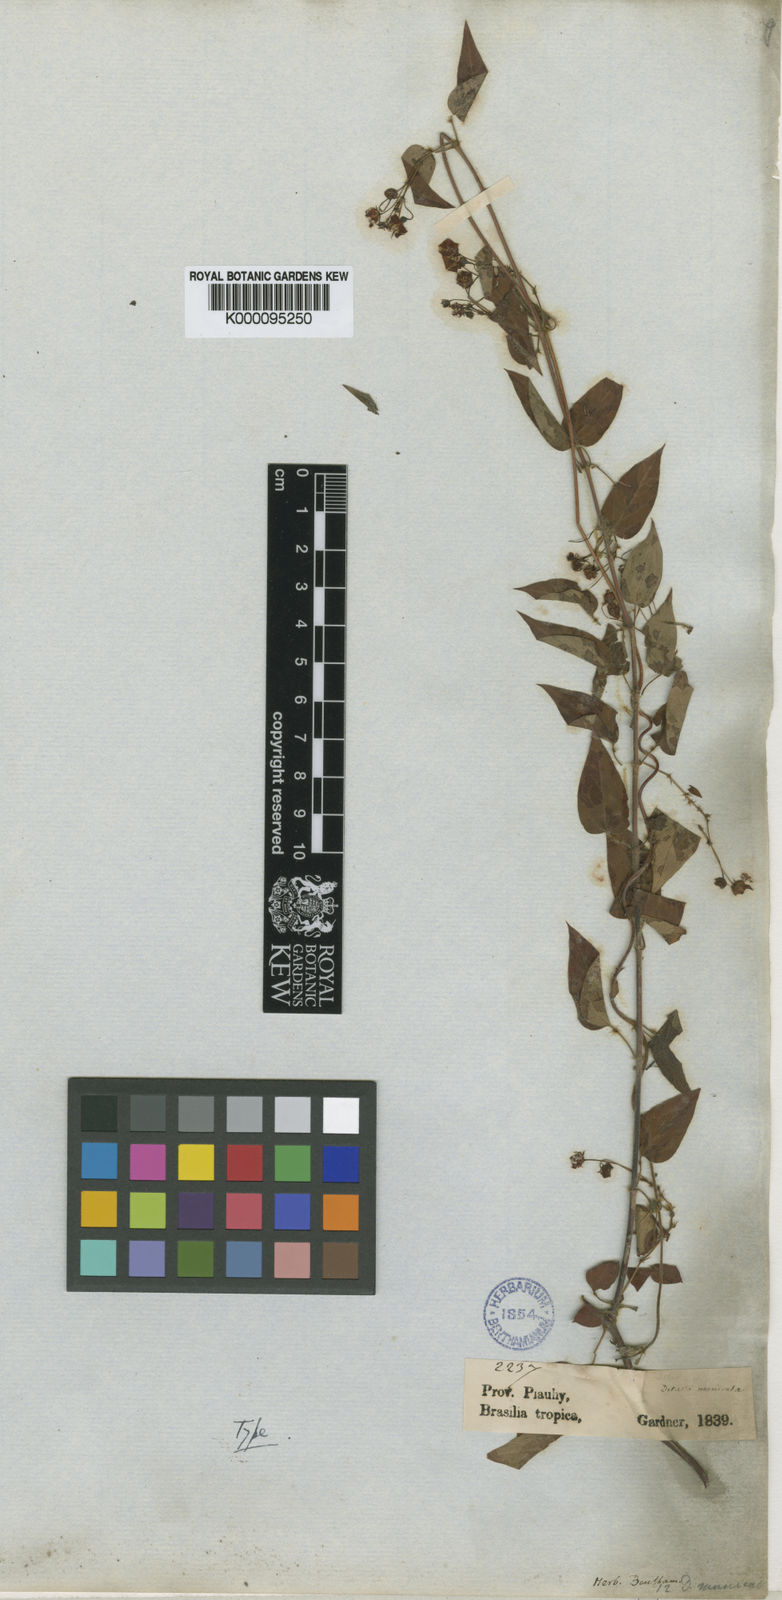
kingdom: Plantae
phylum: Tracheophyta
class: Magnoliopsida
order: Gentianales
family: Apocynaceae
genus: Blepharodon
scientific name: Blepharodon manicatum
